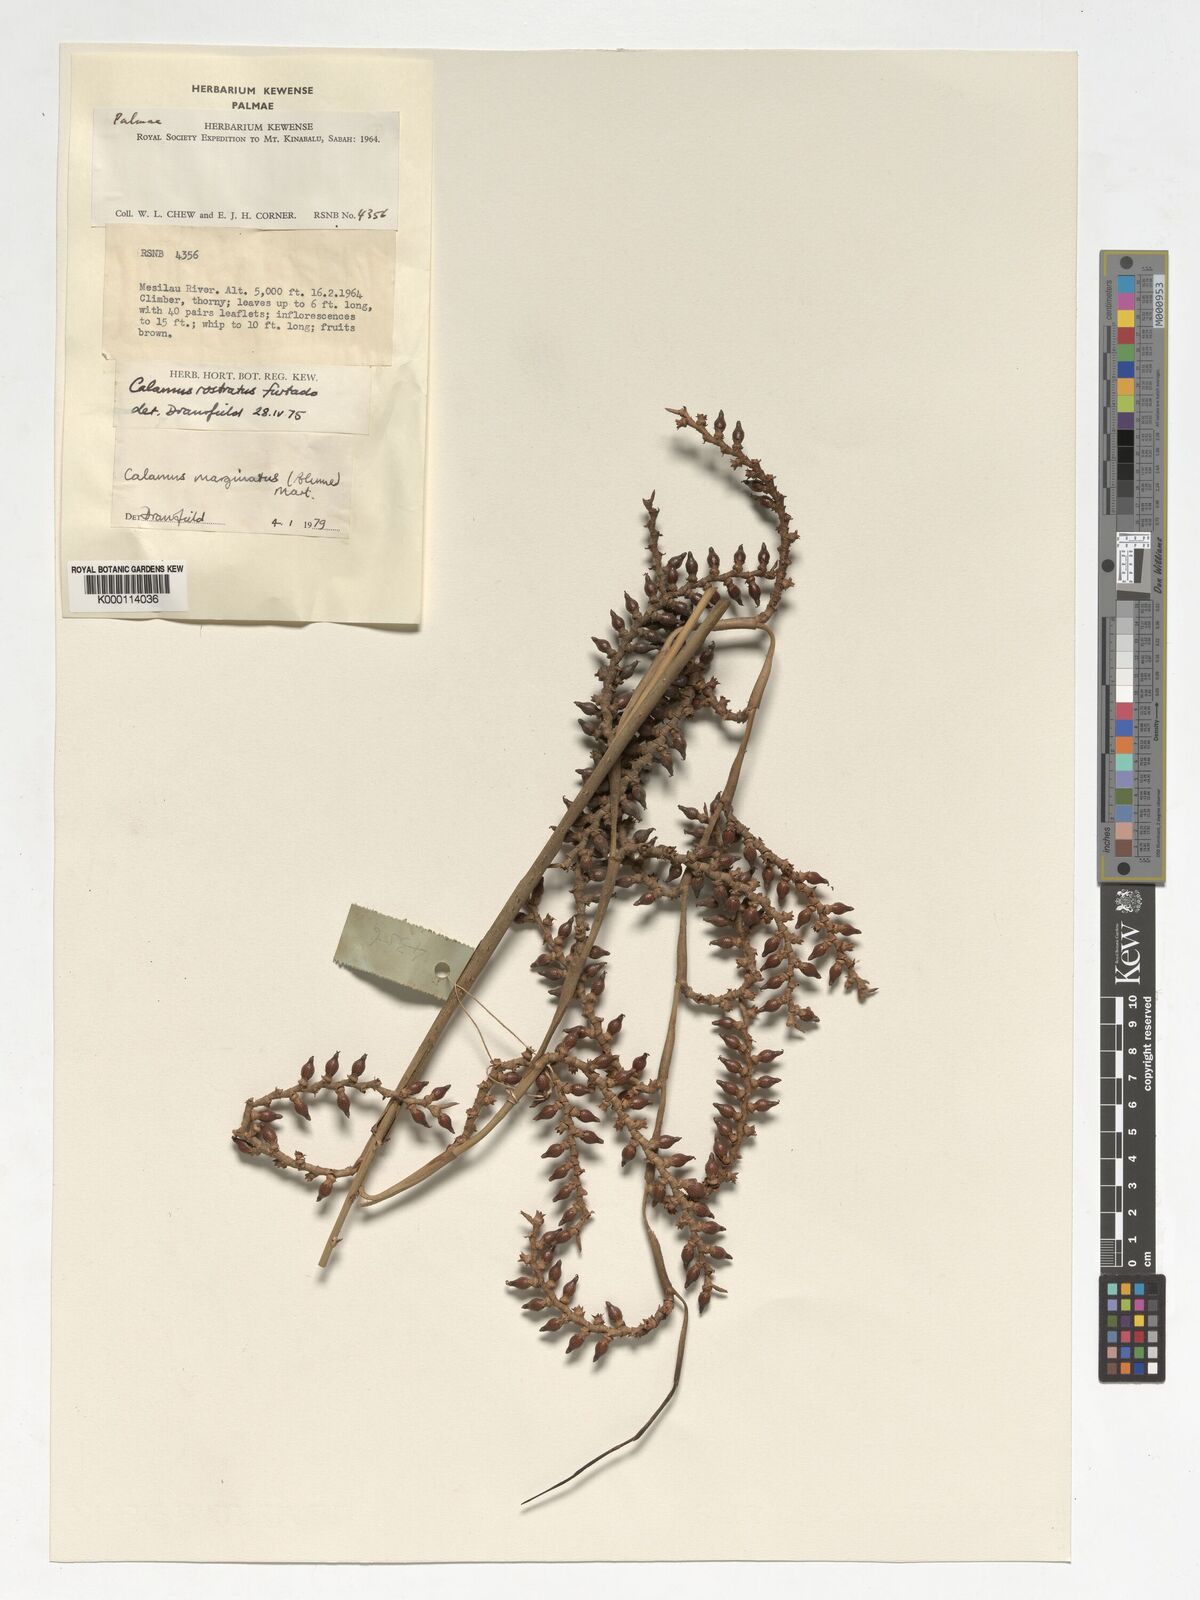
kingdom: Plantae
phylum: Tracheophyta
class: Liliopsida
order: Arecales
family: Arecaceae
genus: Calamus
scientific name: Calamus
